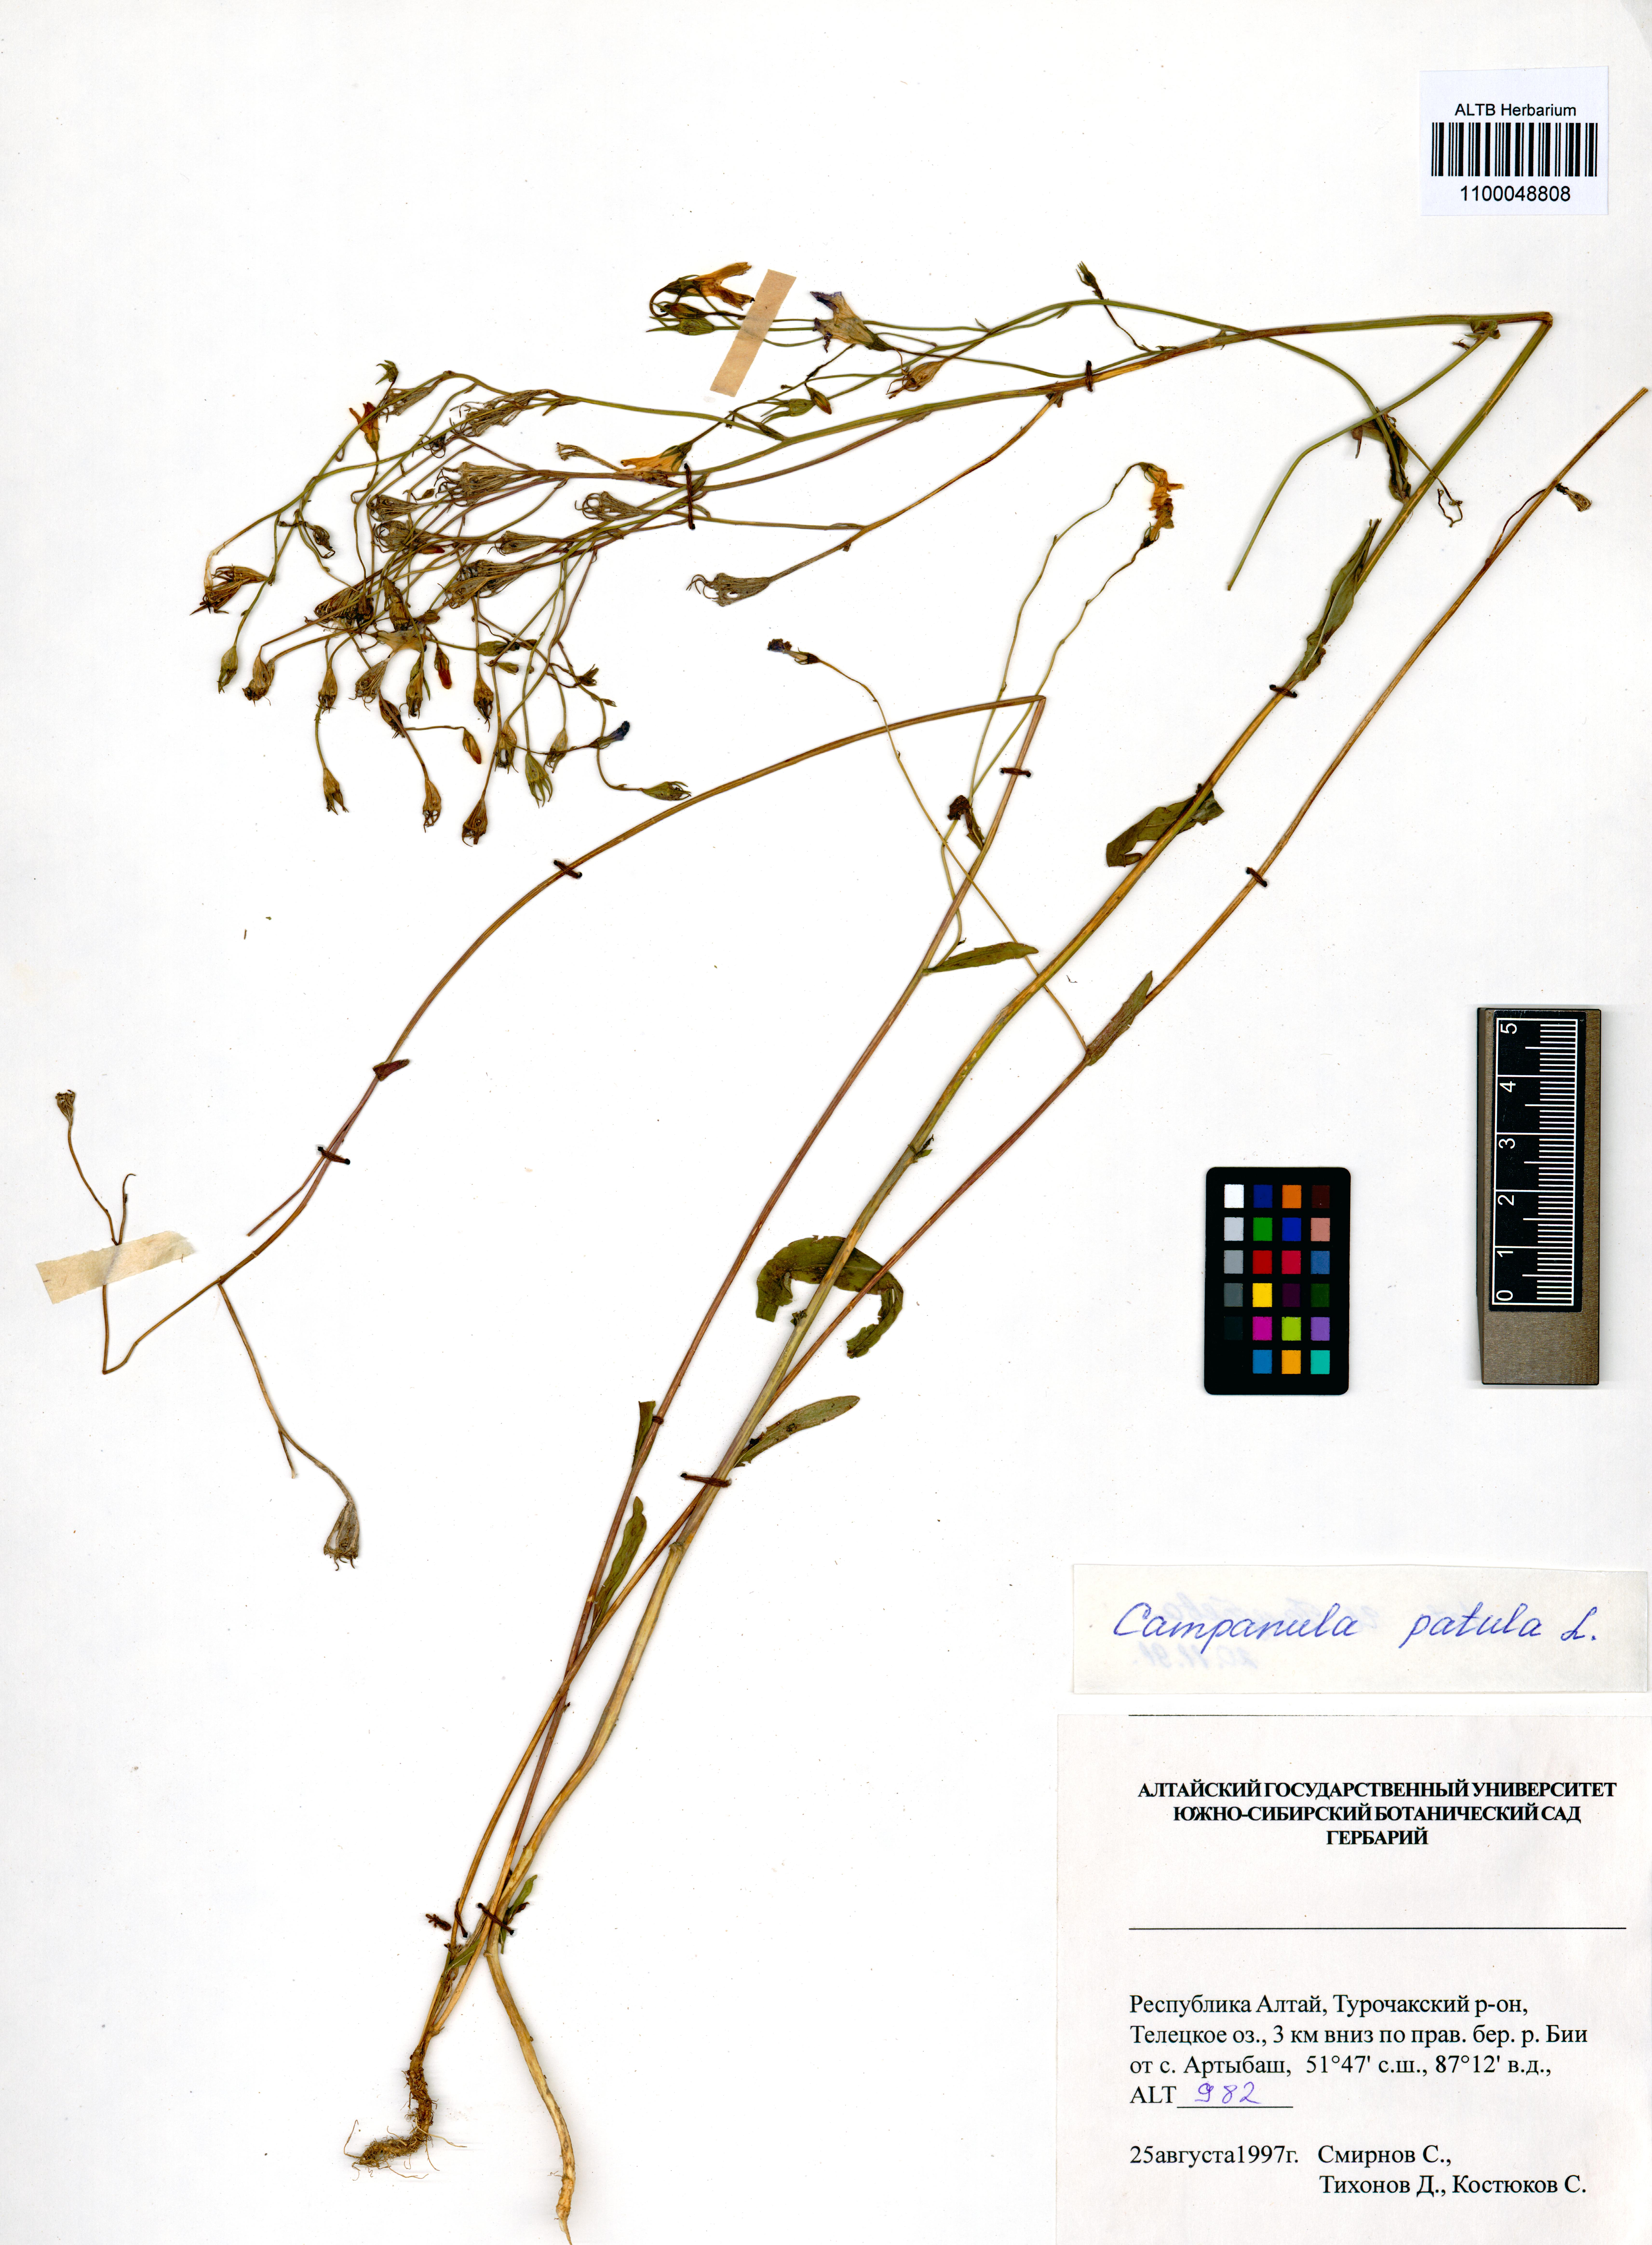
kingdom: Plantae
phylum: Tracheophyta
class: Magnoliopsida
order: Asterales
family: Campanulaceae
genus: Campanula
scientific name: Campanula patula
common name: Spreading bellflower
